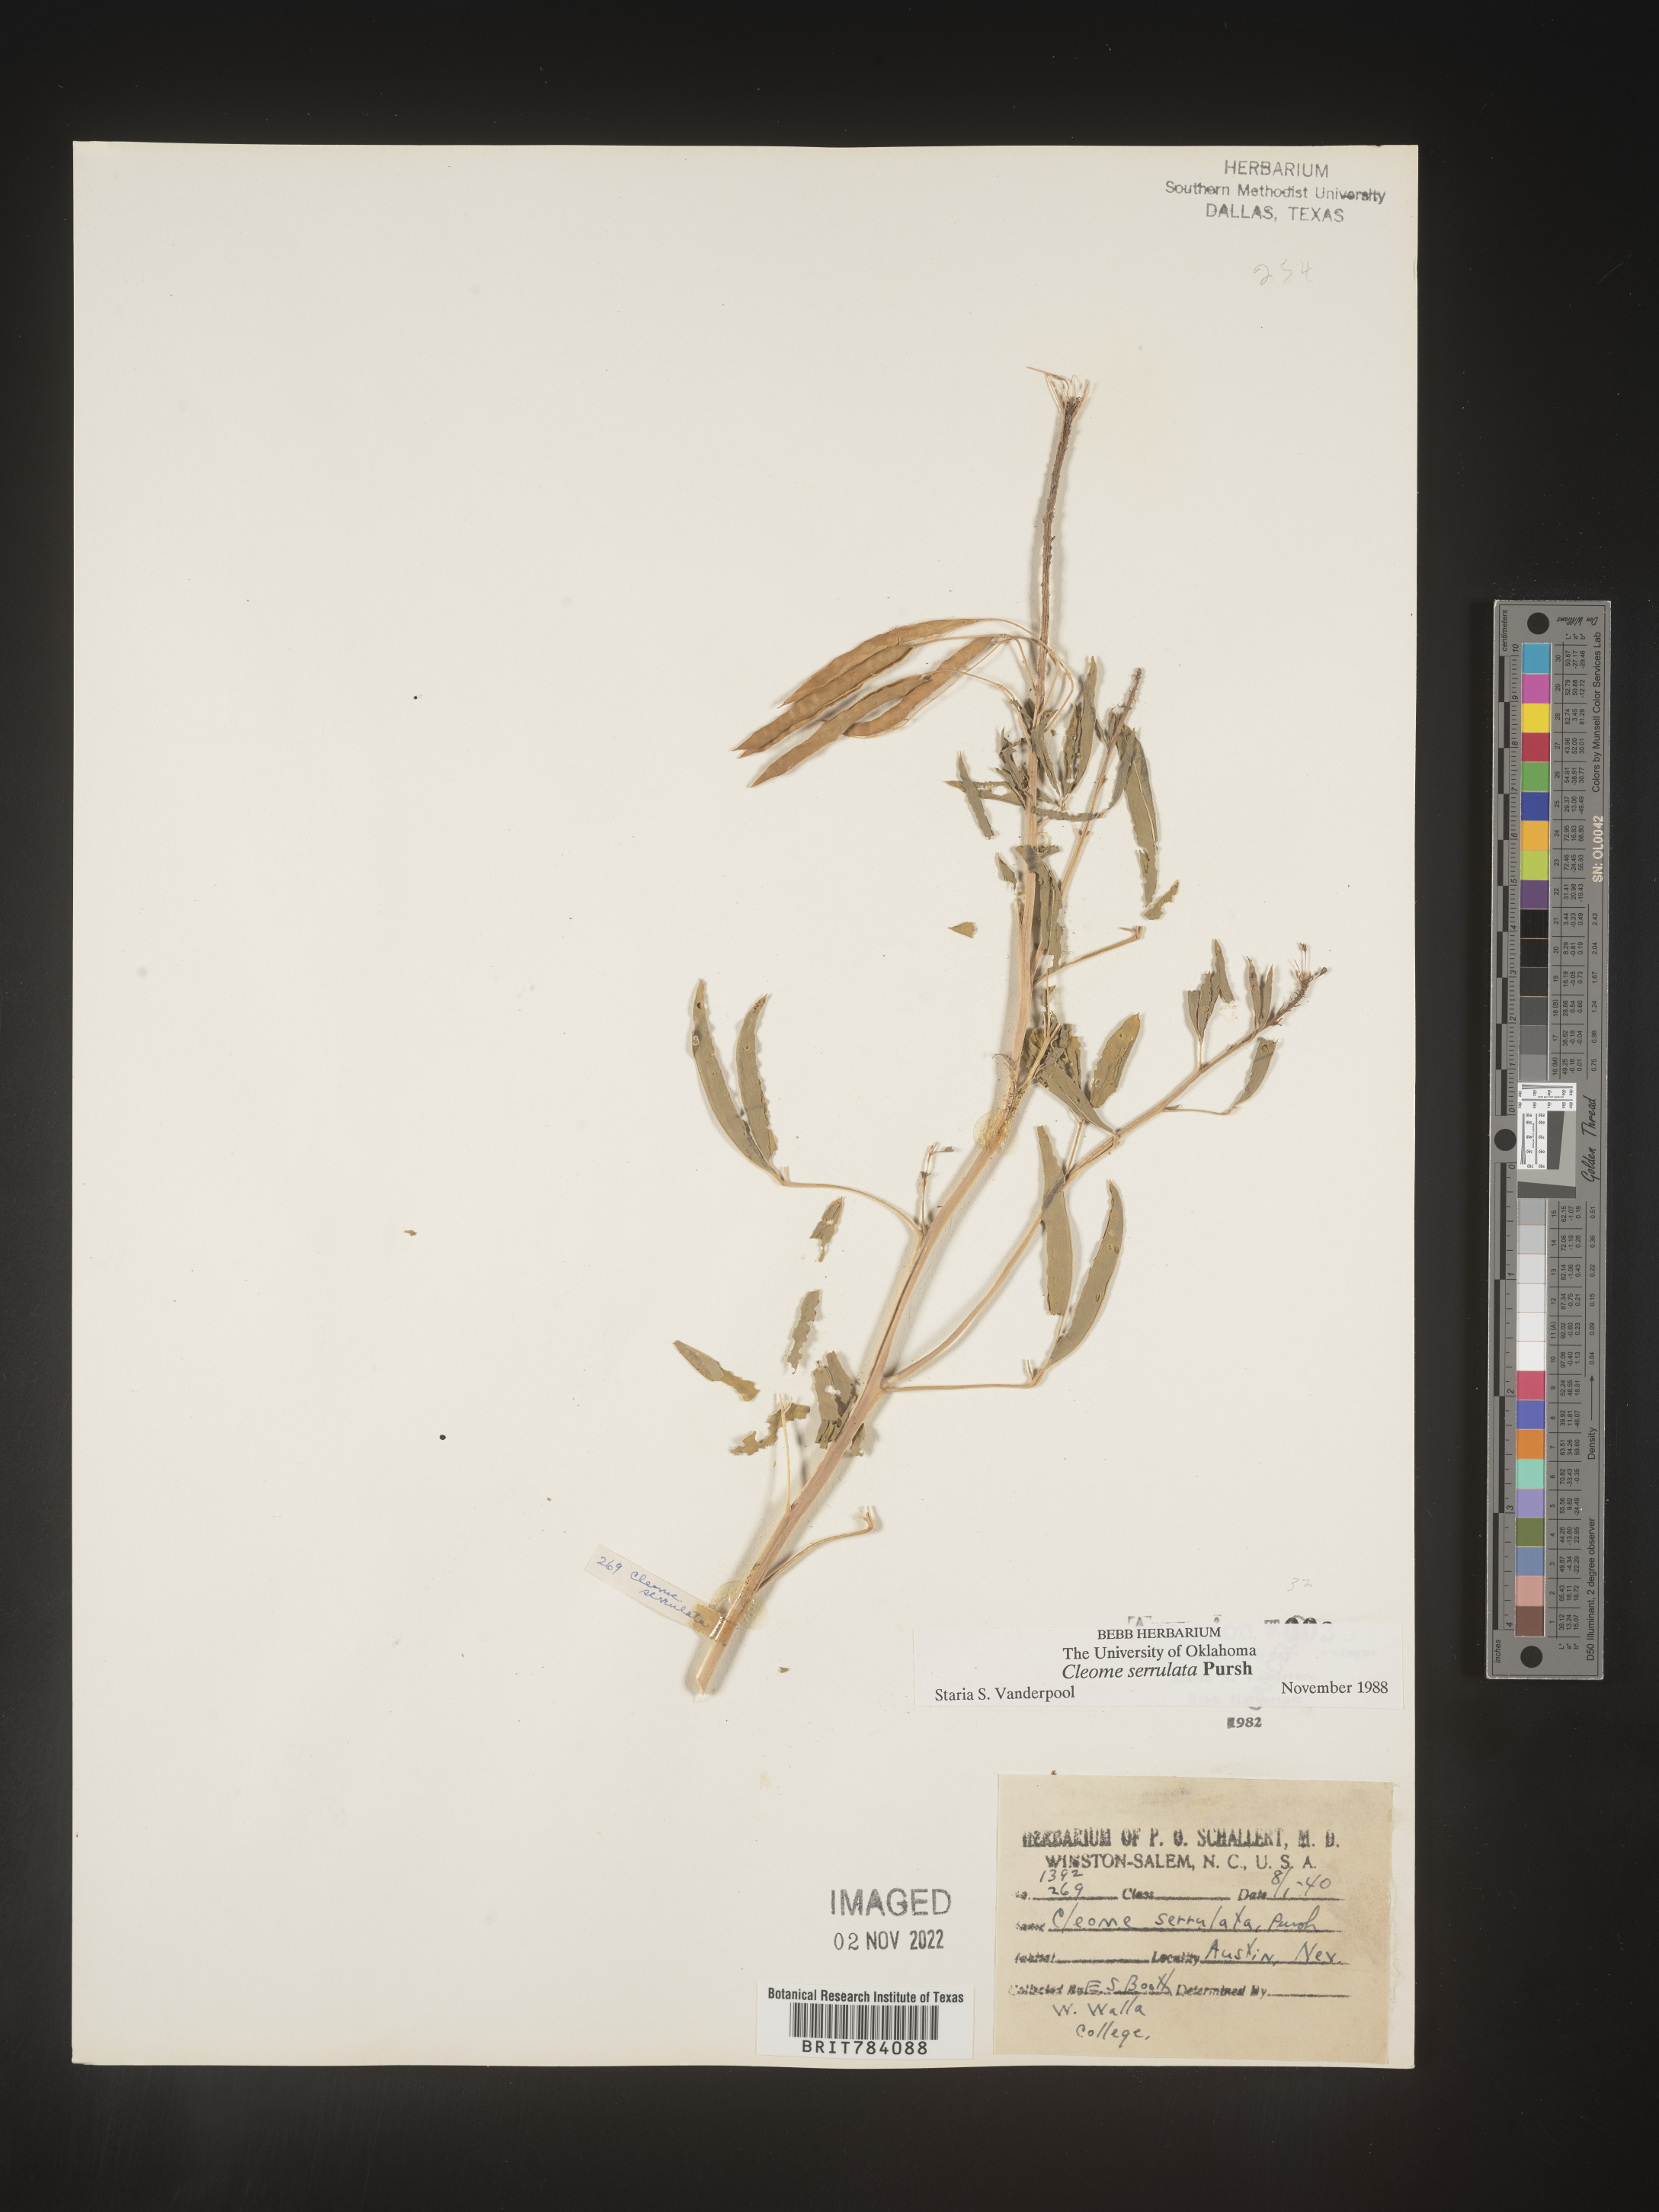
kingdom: Plantae
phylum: Tracheophyta
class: Magnoliopsida
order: Brassicales
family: Cleomaceae
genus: Cleomella
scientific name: Cleomella serrulata
